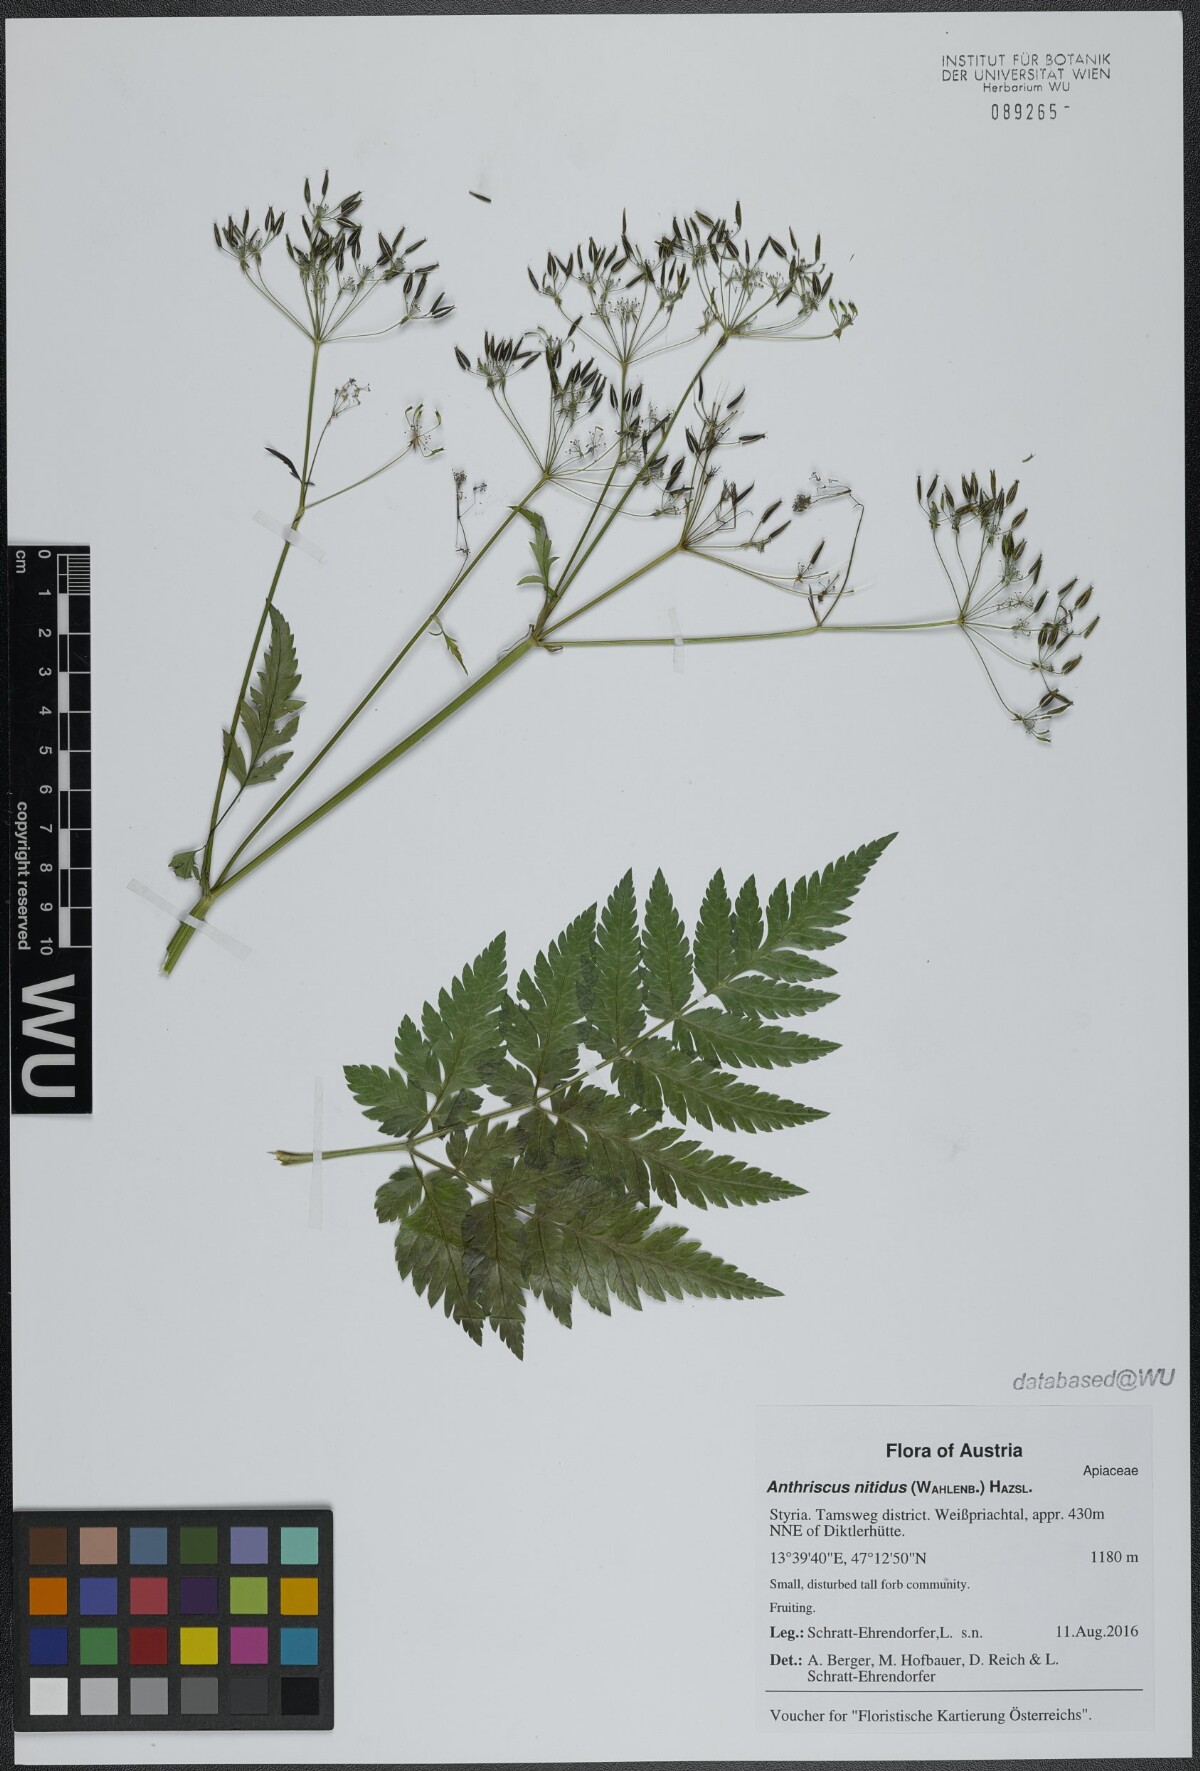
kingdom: Plantae
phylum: Tracheophyta
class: Magnoliopsida
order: Apiales
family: Apiaceae
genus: Anthriscus
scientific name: Anthriscus nitida
